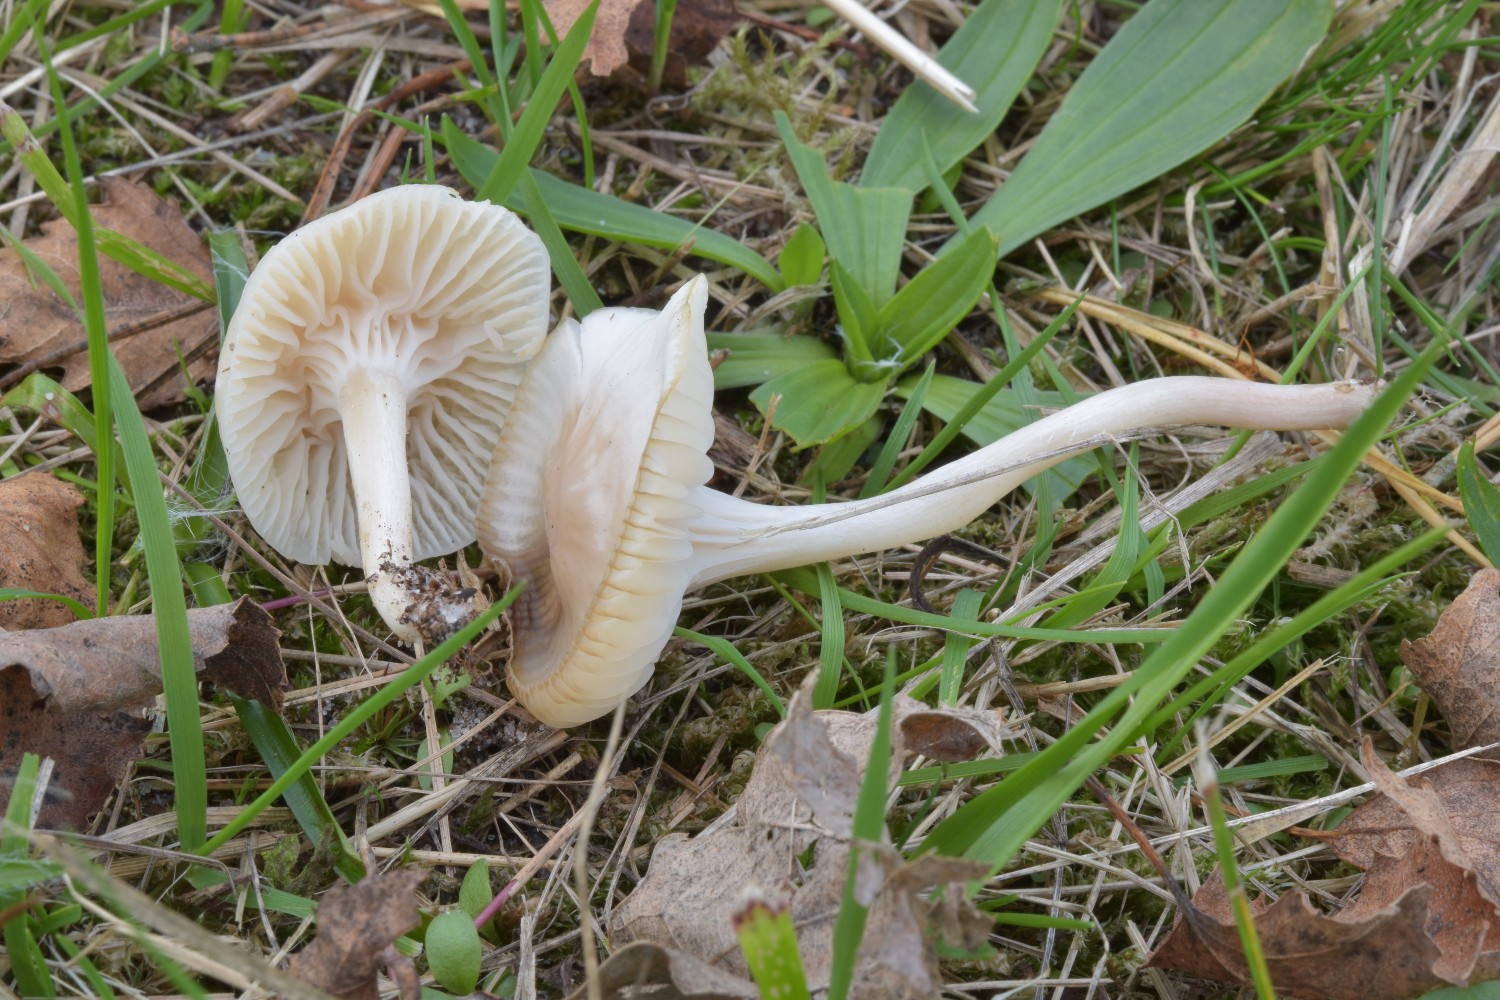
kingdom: Fungi
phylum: Basidiomycota
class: Agaricomycetes
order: Agaricales
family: Hygrophoraceae
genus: Cuphophyllus
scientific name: Cuphophyllus virgineus
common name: snehvid vokshat
